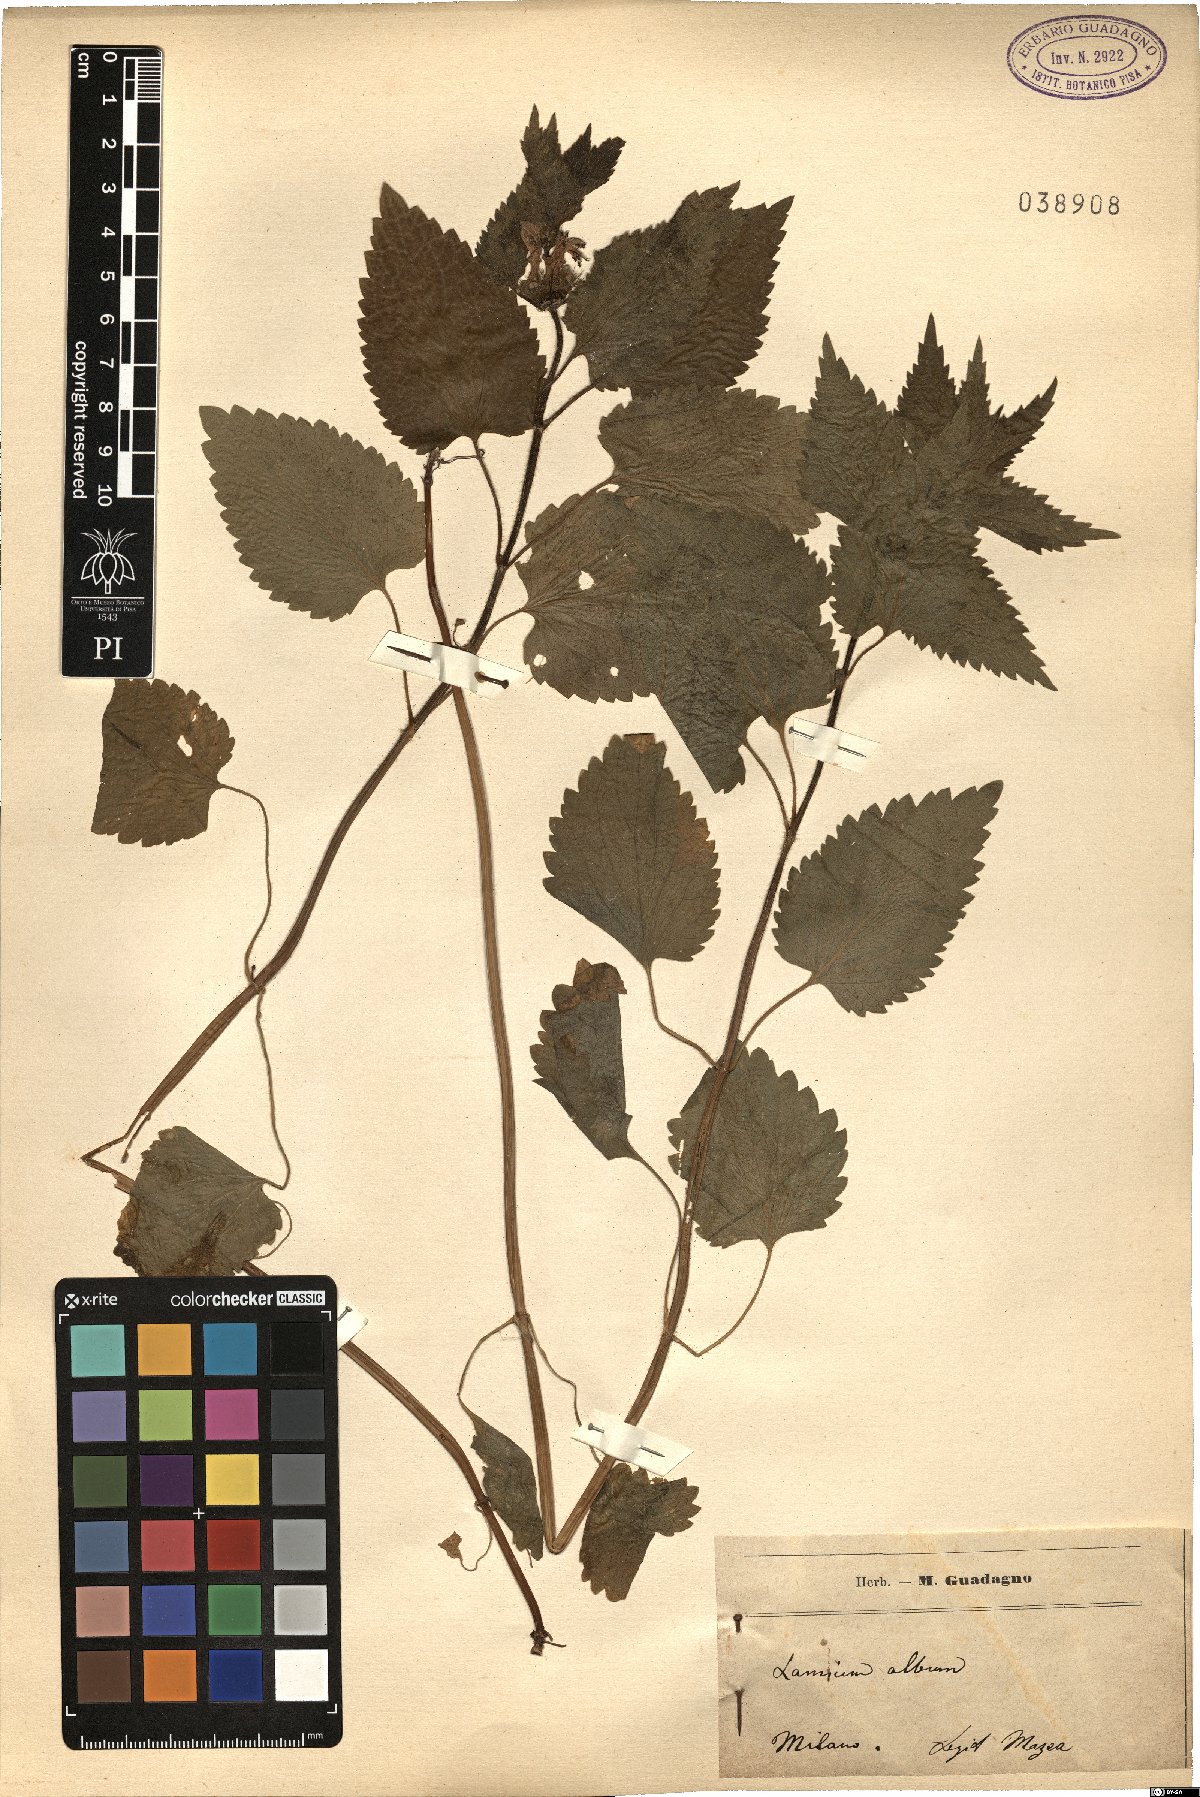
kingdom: Plantae
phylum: Tracheophyta
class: Magnoliopsida
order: Lamiales
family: Lamiaceae
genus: Lamium
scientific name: Lamium album
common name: White dead-nettle
